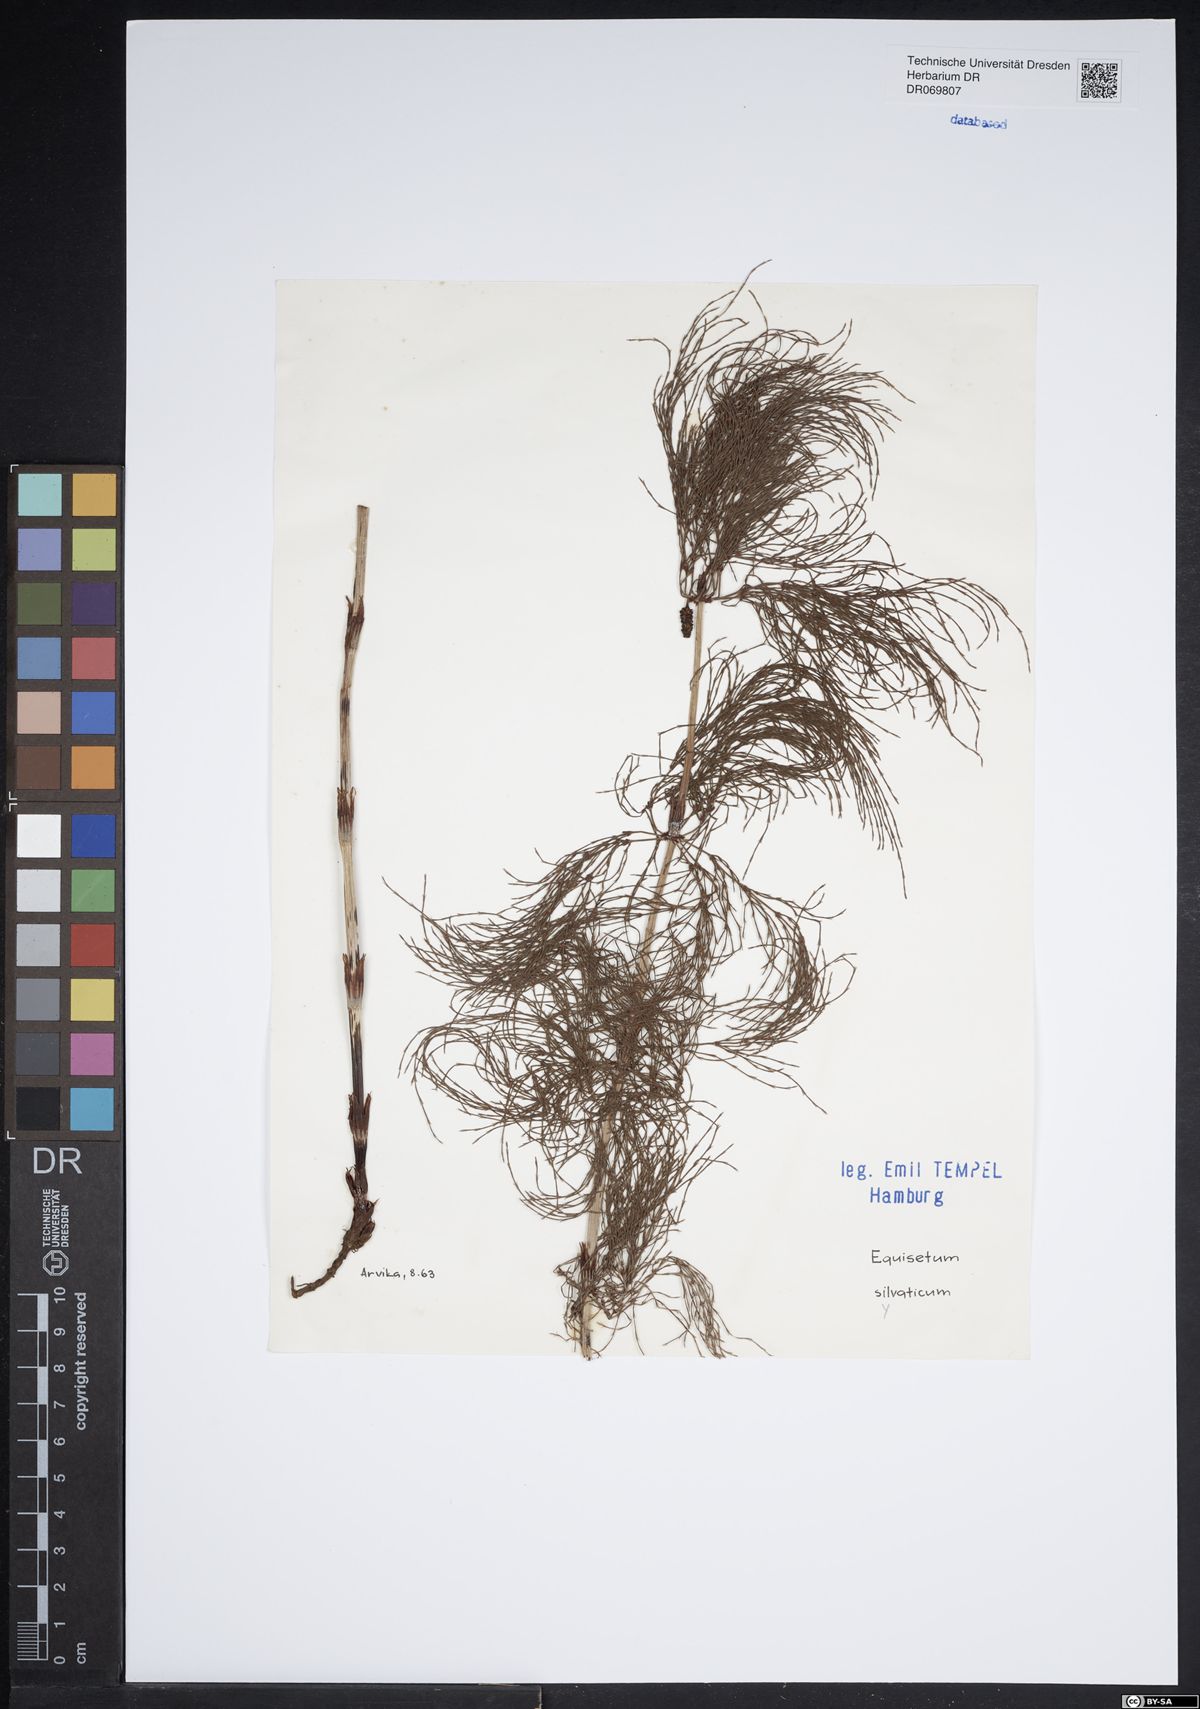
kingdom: Plantae
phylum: Tracheophyta
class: Polypodiopsida
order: Equisetales
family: Equisetaceae
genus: Equisetum
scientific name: Equisetum sylvaticum
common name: Wood horsetail
